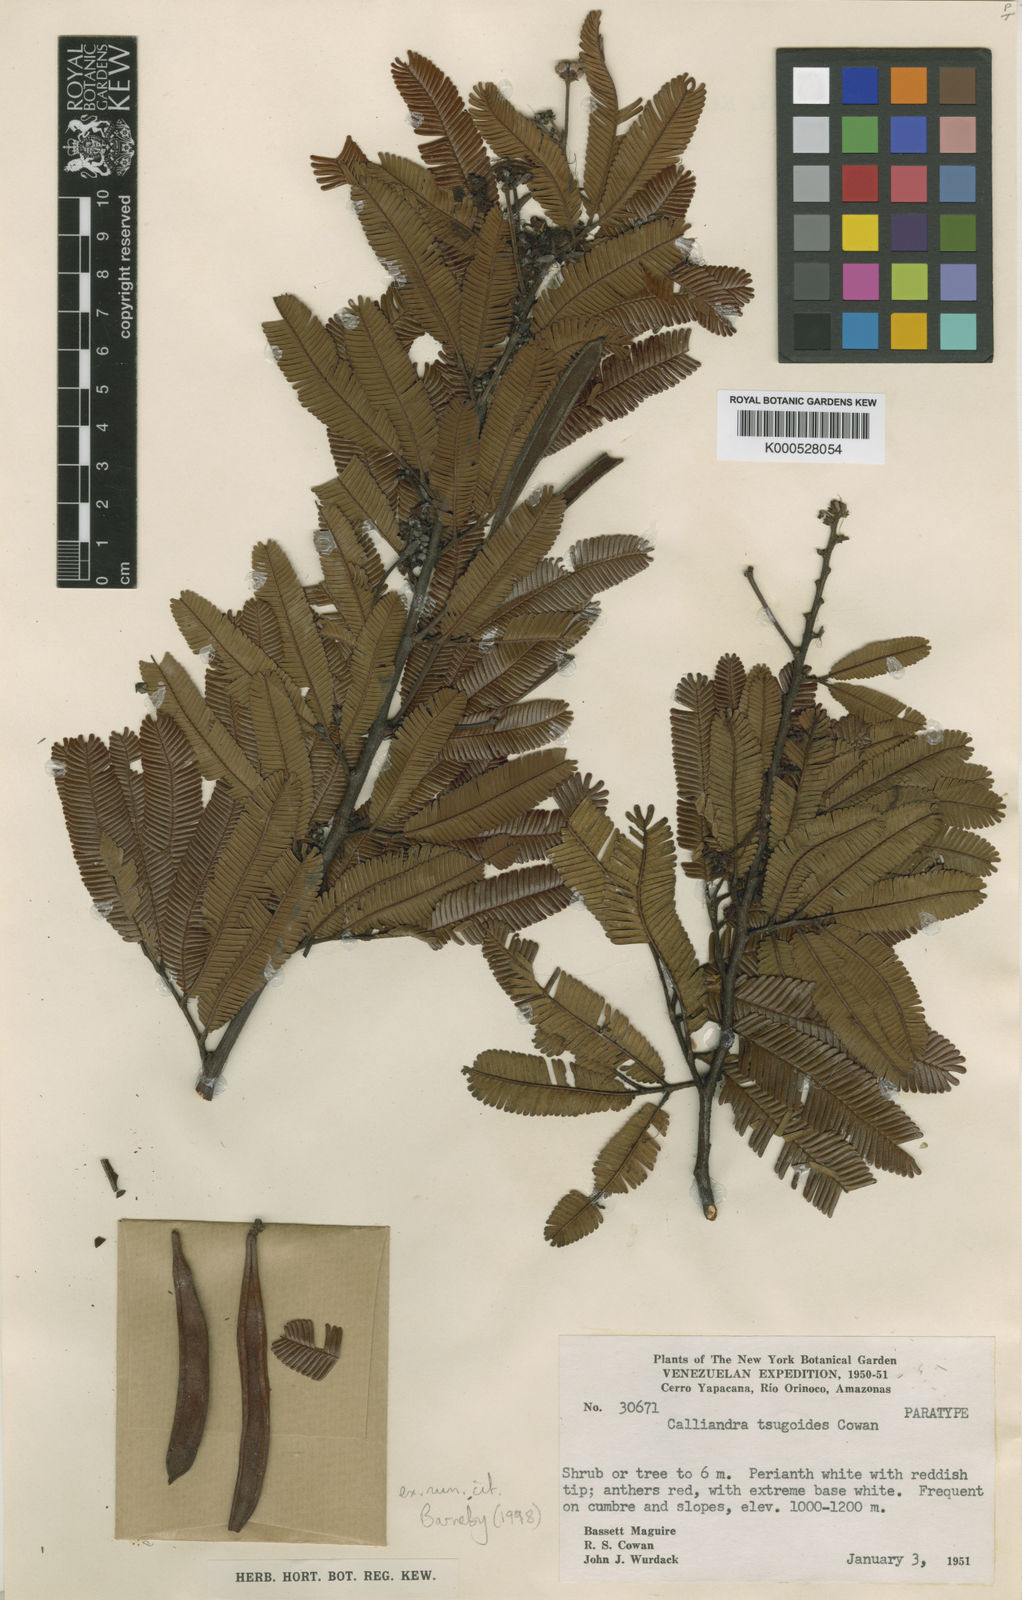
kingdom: Plantae
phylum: Tracheophyta
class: Magnoliopsida
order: Fabales
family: Fabaceae
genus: Calliandra
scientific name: Calliandra tsugoides
